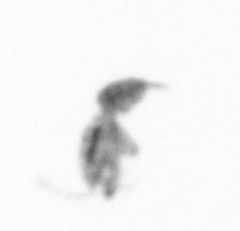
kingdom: Animalia
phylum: Arthropoda
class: Copepoda
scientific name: Copepoda
